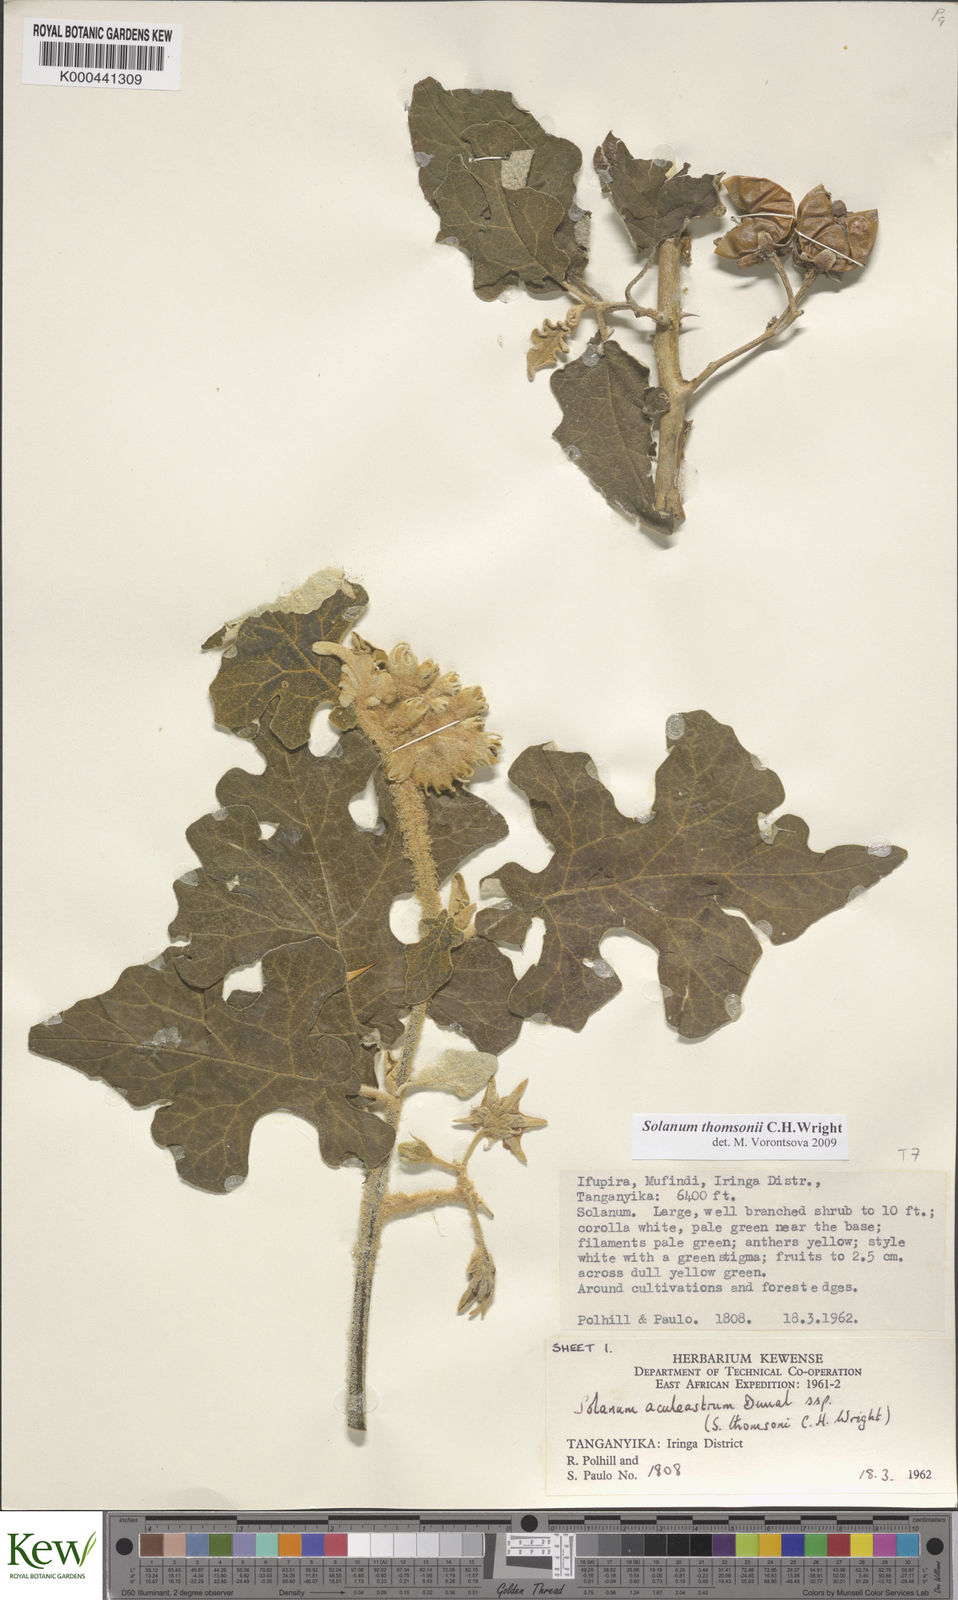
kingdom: Plantae
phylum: Tracheophyta
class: Magnoliopsida
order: Solanales
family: Solanaceae
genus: Solanum
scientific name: Solanum aculeastrum
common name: Goat bitter-apple
